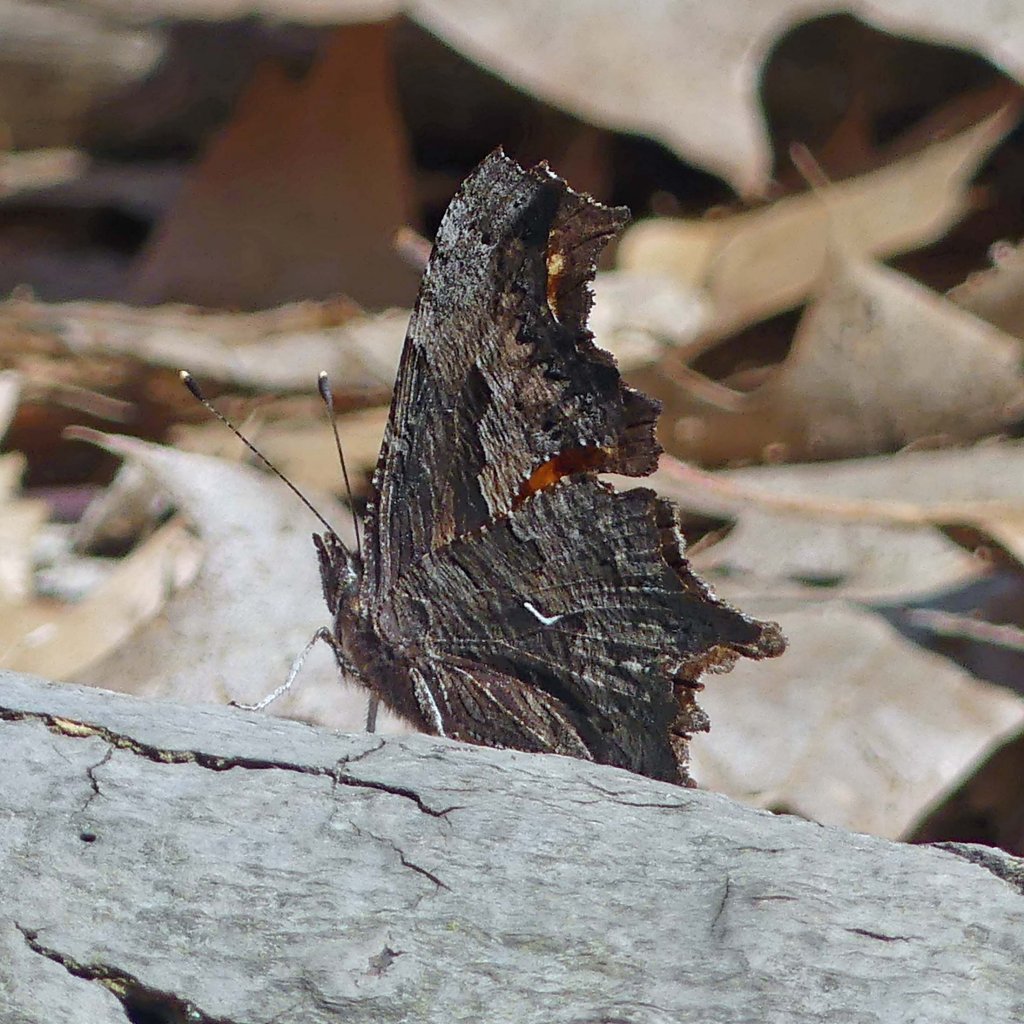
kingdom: Animalia
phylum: Arthropoda
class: Insecta
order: Lepidoptera
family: Nymphalidae
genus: Polygonia
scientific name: Polygonia progne
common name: Gray Comma
